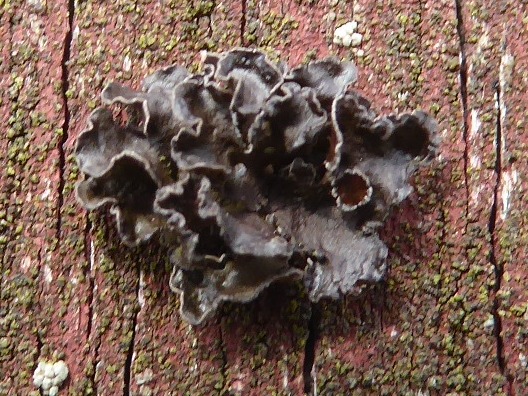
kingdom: Fungi
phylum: Ascomycota
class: Lecanoromycetes
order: Lecanorales
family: Parmeliaceae
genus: Cetraria
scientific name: Cetraria sepincola
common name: tue-kruslav
